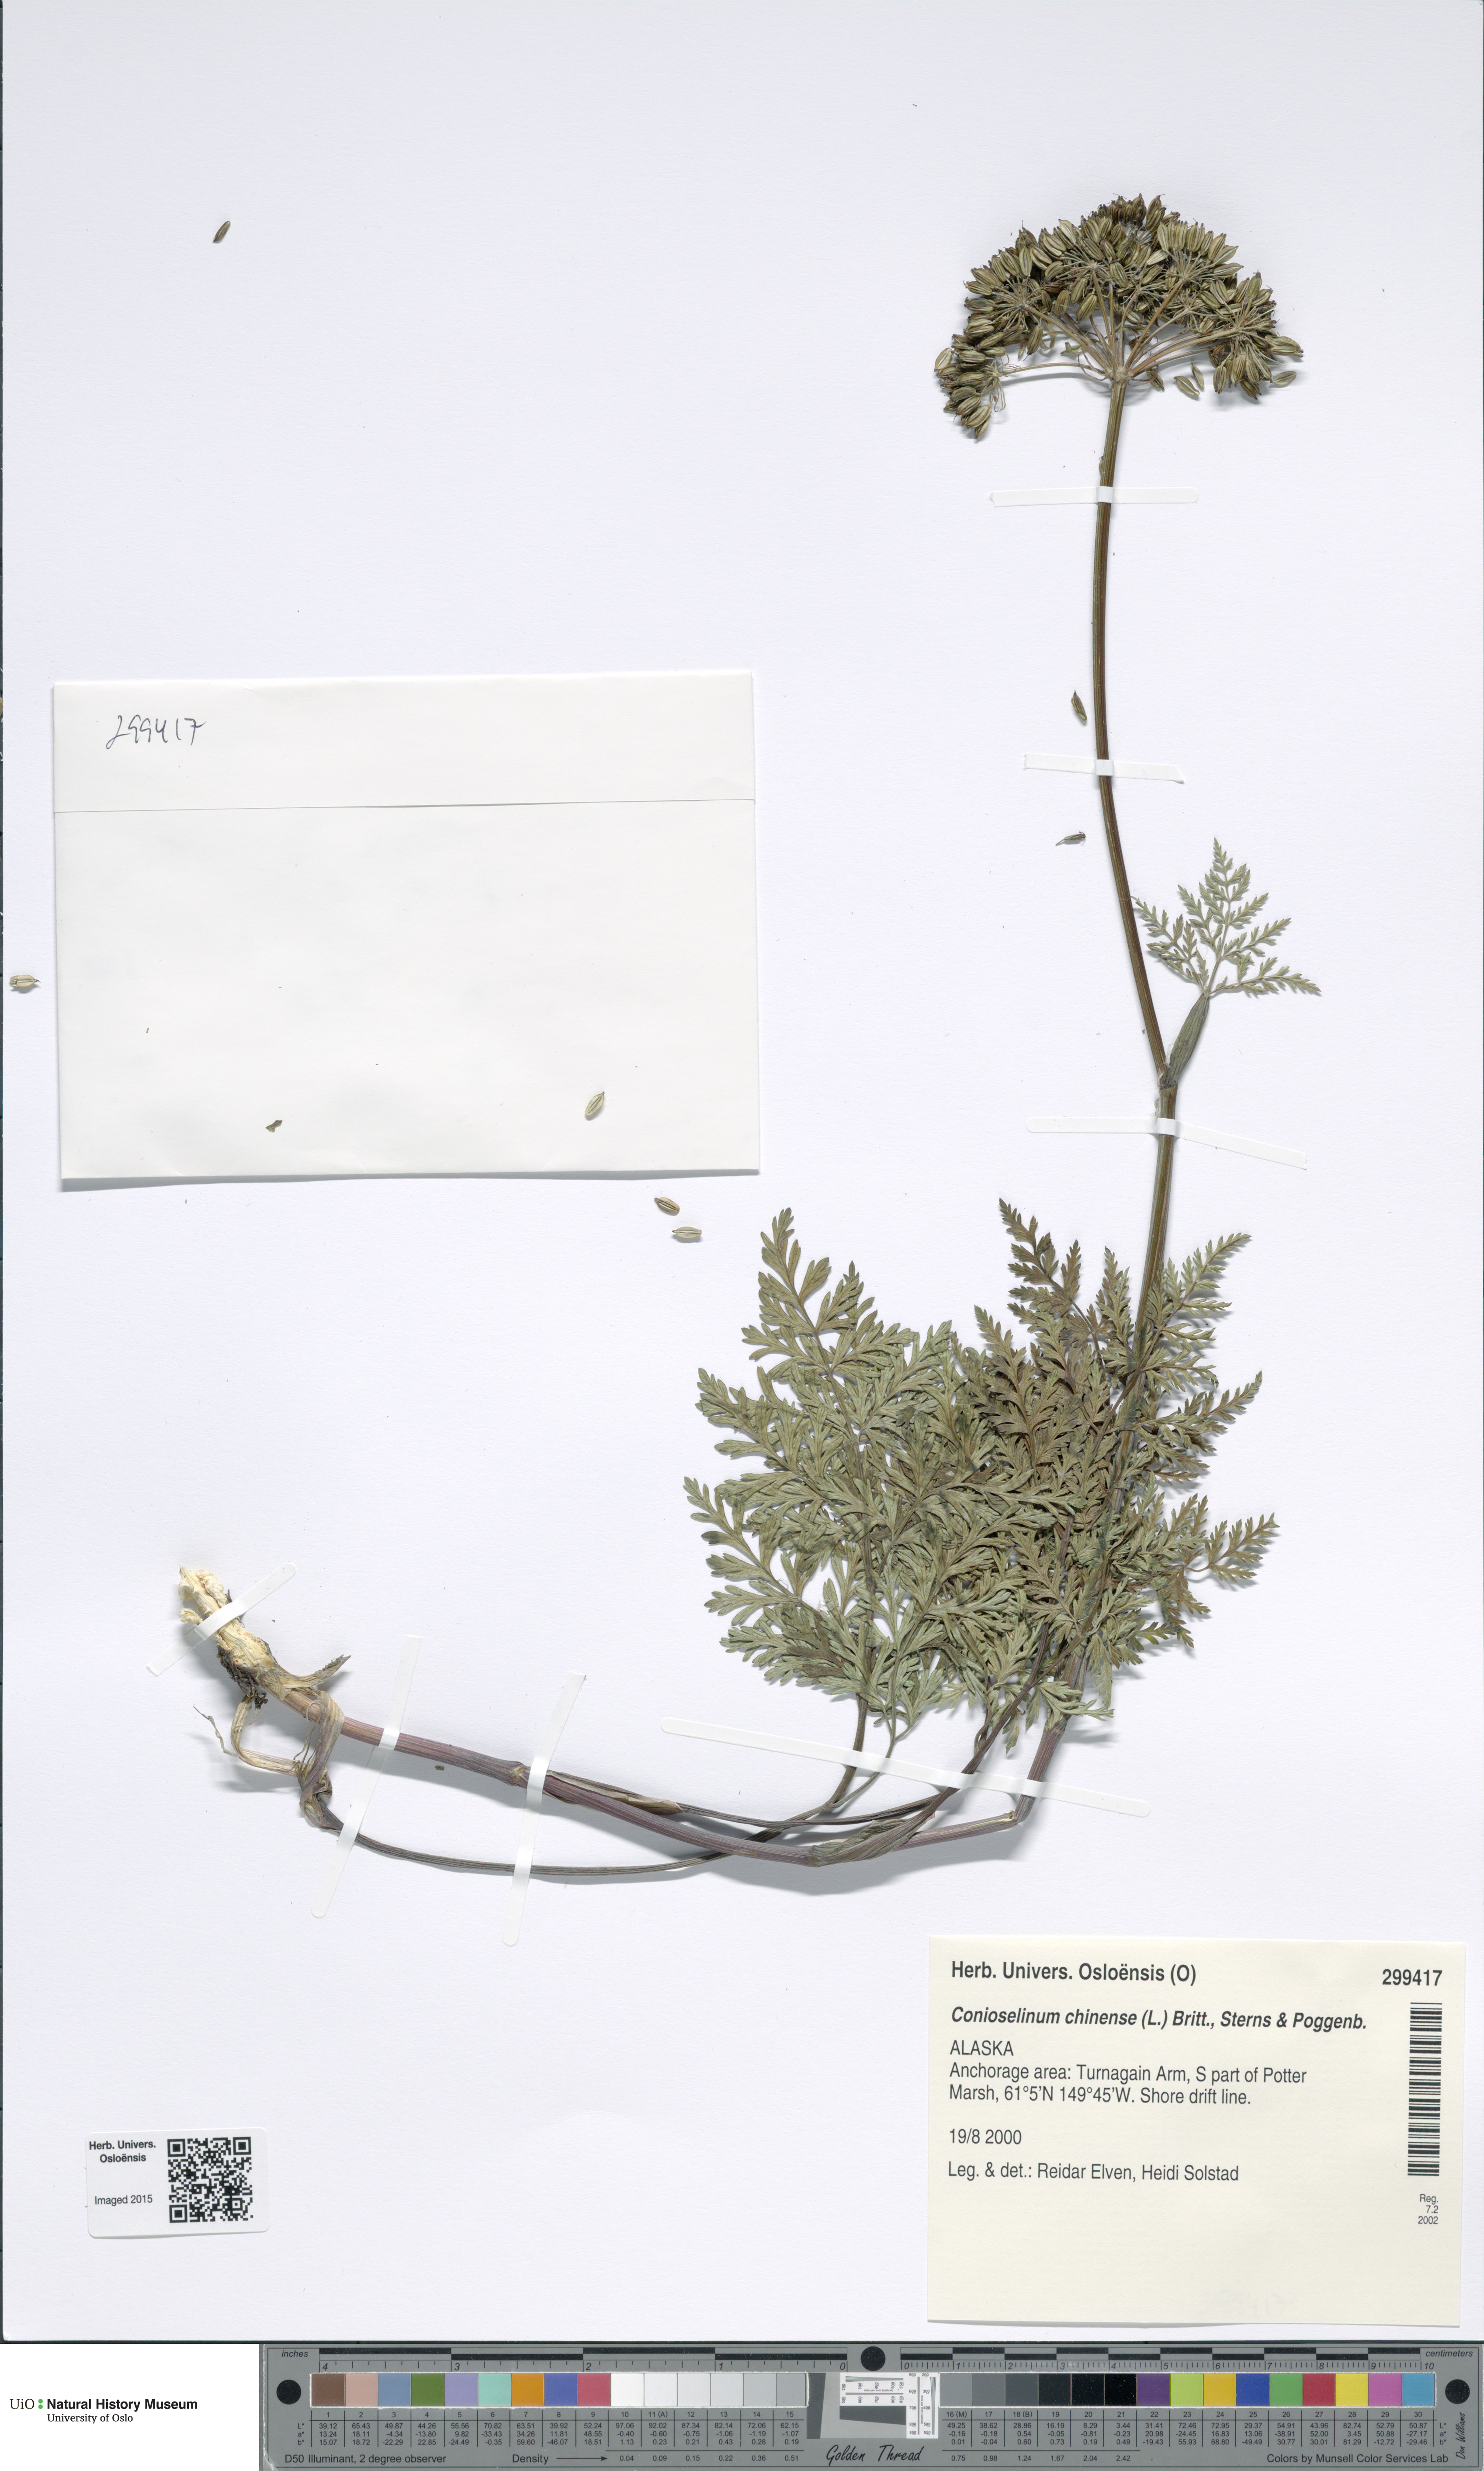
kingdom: Plantae
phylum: Tracheophyta
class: Magnoliopsida
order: Apiales
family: Apiaceae
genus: Kreidion
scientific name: Kreidion chinensis
